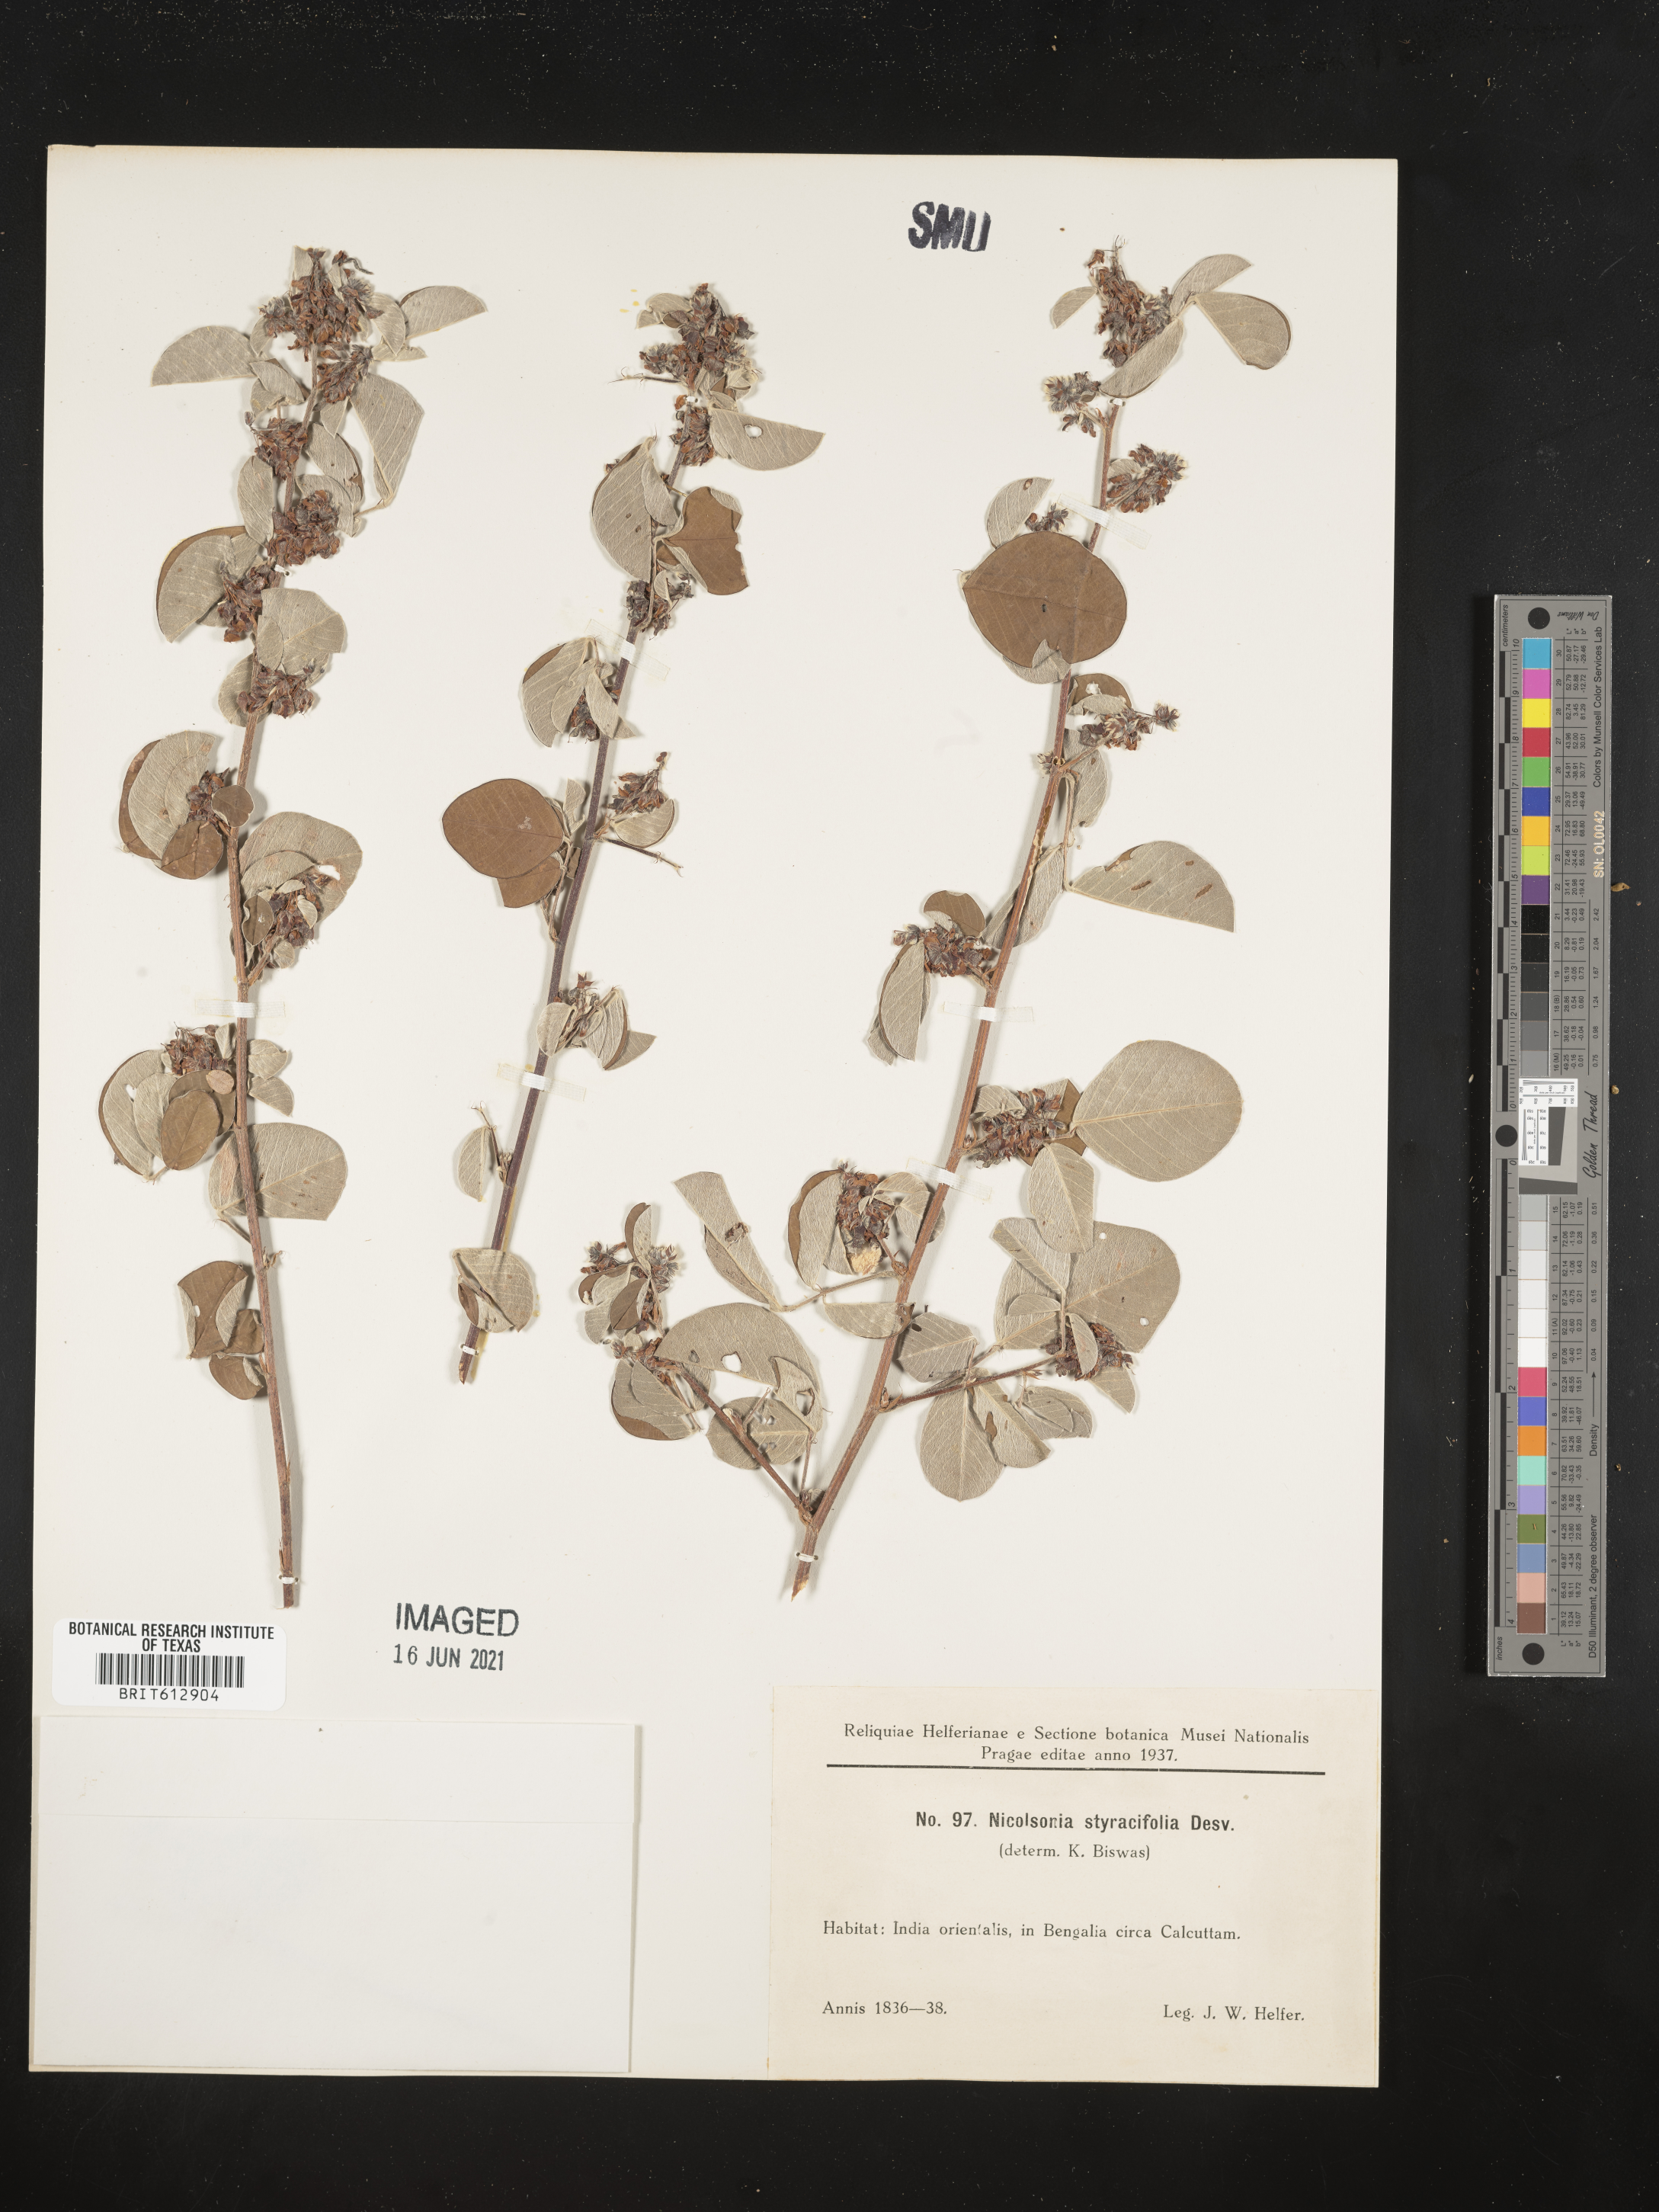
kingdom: Plantae
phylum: Tracheophyta
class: Magnoliopsida
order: Fabales
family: Fabaceae
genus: Grona
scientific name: Grona styracifolia
